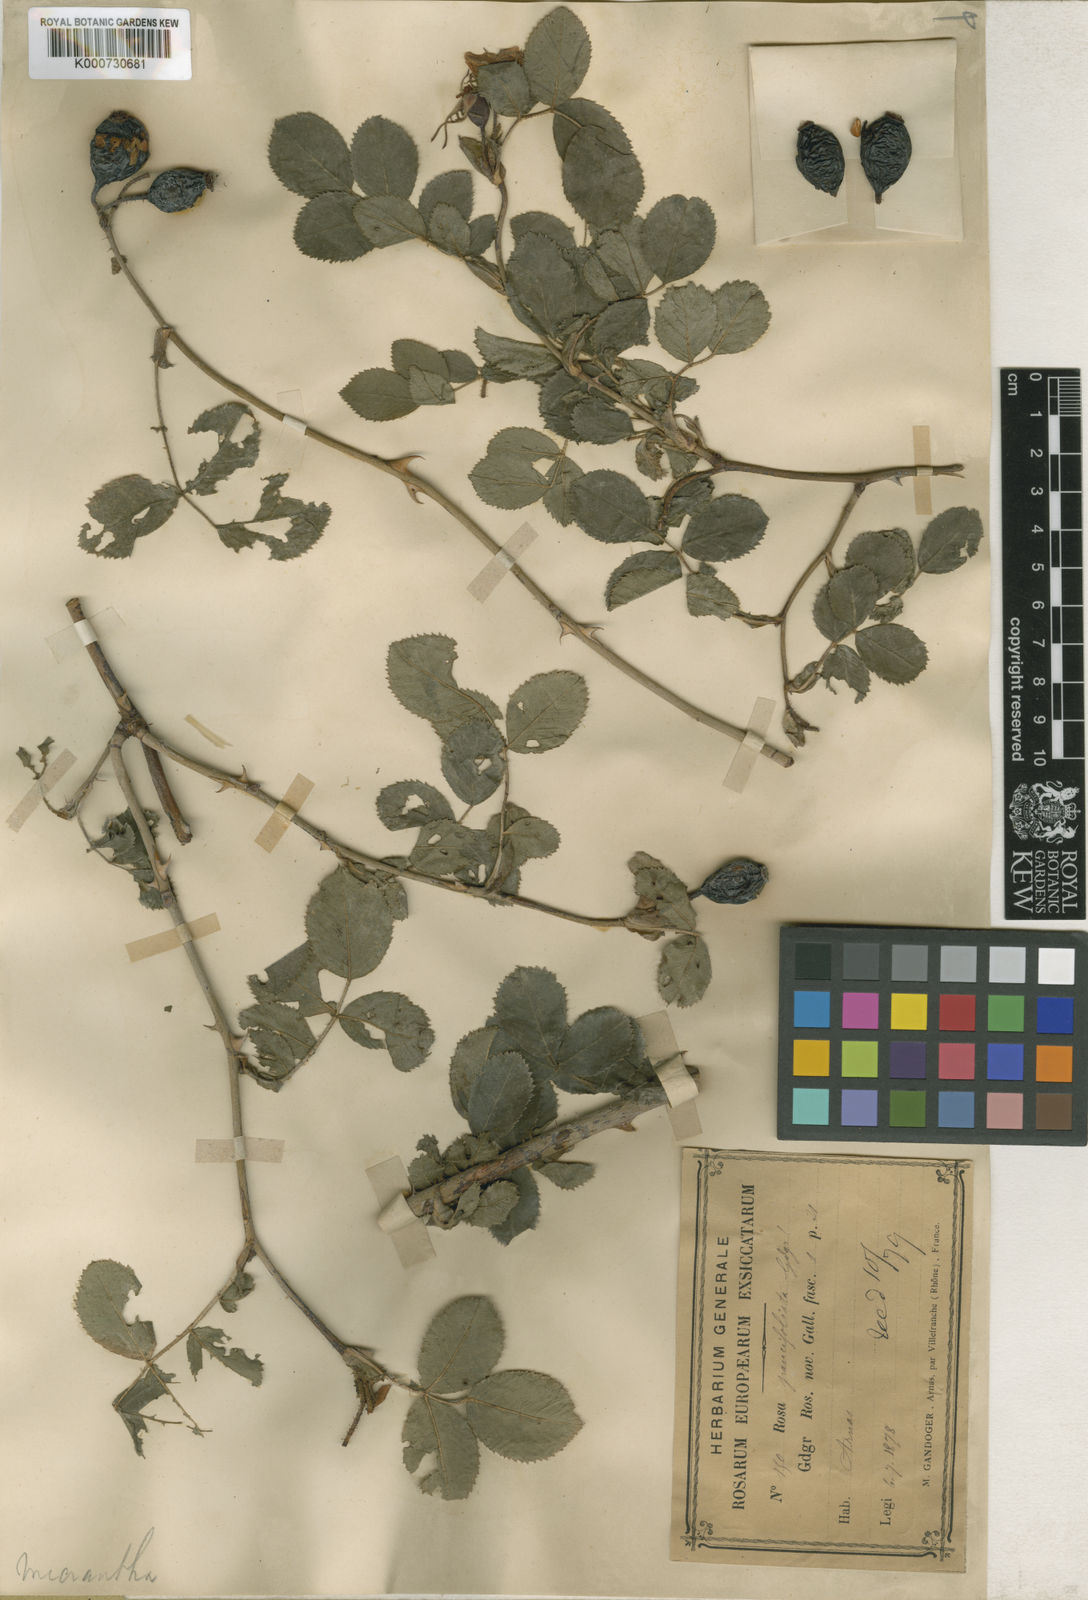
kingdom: Plantae
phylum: Tracheophyta
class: Magnoliopsida
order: Rosales
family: Rosaceae
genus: Rosa
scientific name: Rosa
